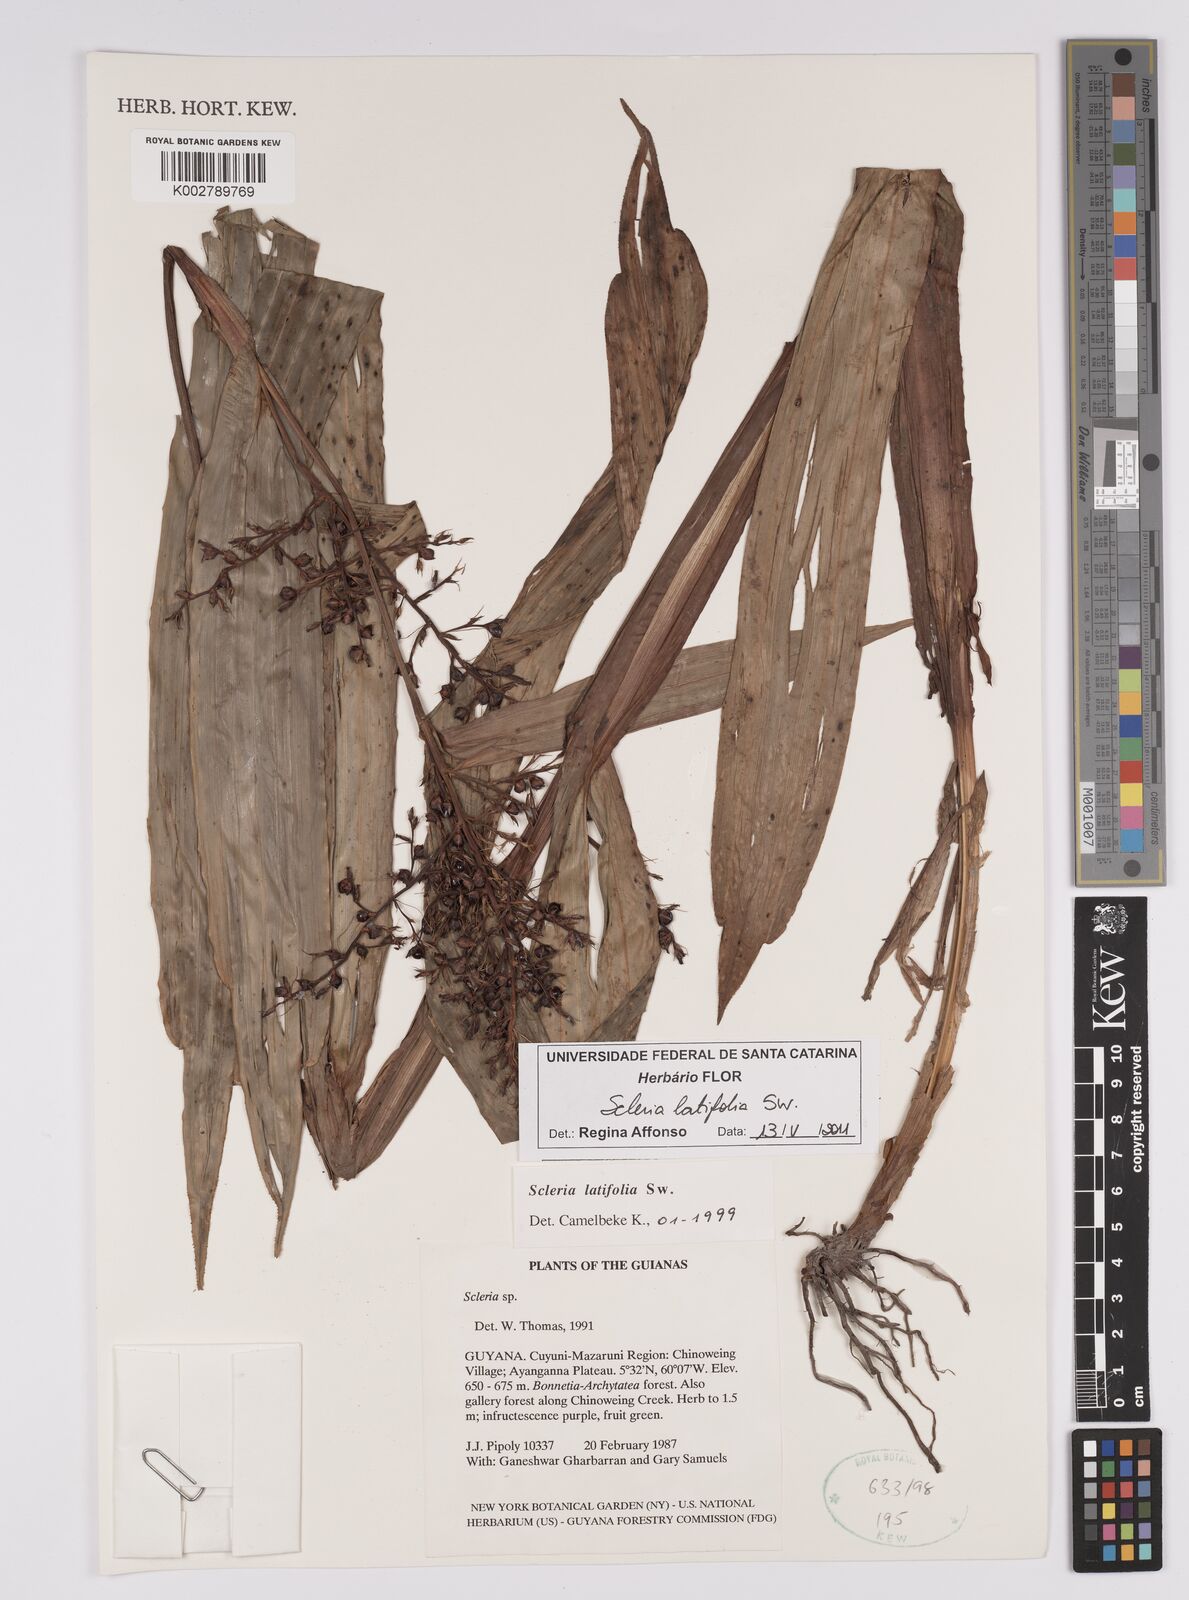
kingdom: Plantae
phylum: Tracheophyta
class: Liliopsida
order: Poales
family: Cyperaceae
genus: Scleria
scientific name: Scleria latifolia
